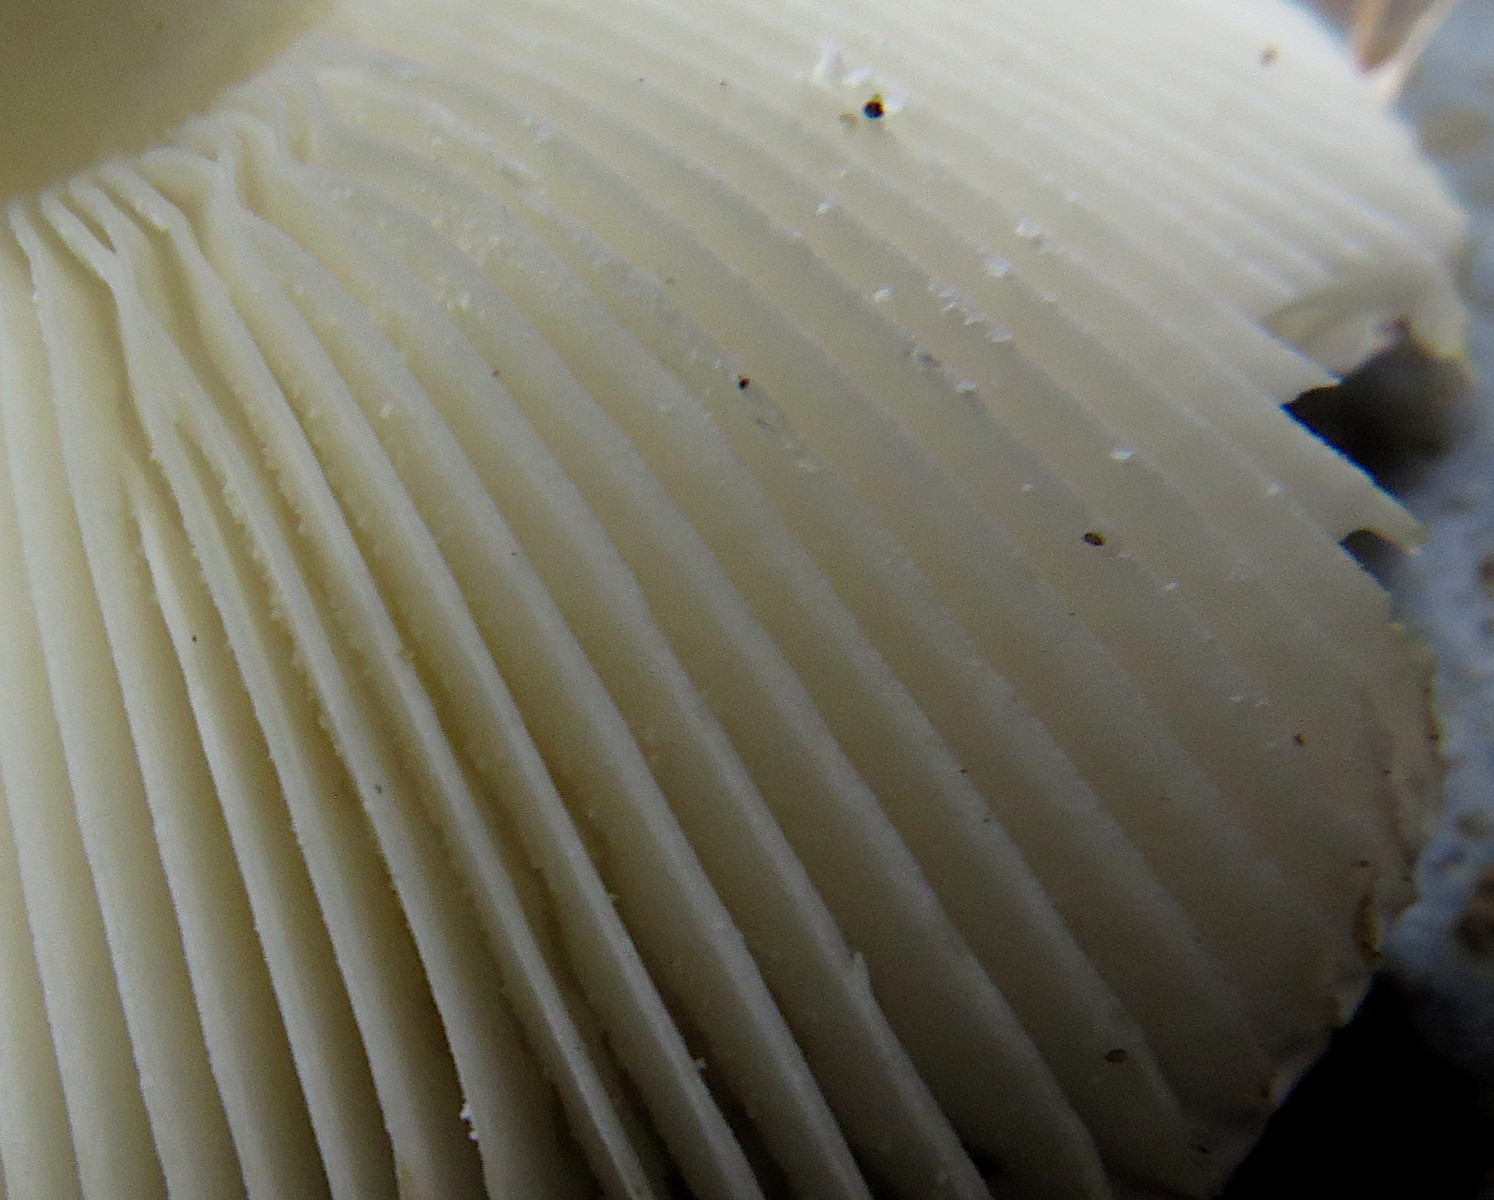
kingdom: Fungi
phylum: Basidiomycota
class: Agaricomycetes
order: Russulales
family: Russulaceae
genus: Russula
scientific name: Russula fragilis
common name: savbladet skørhat
